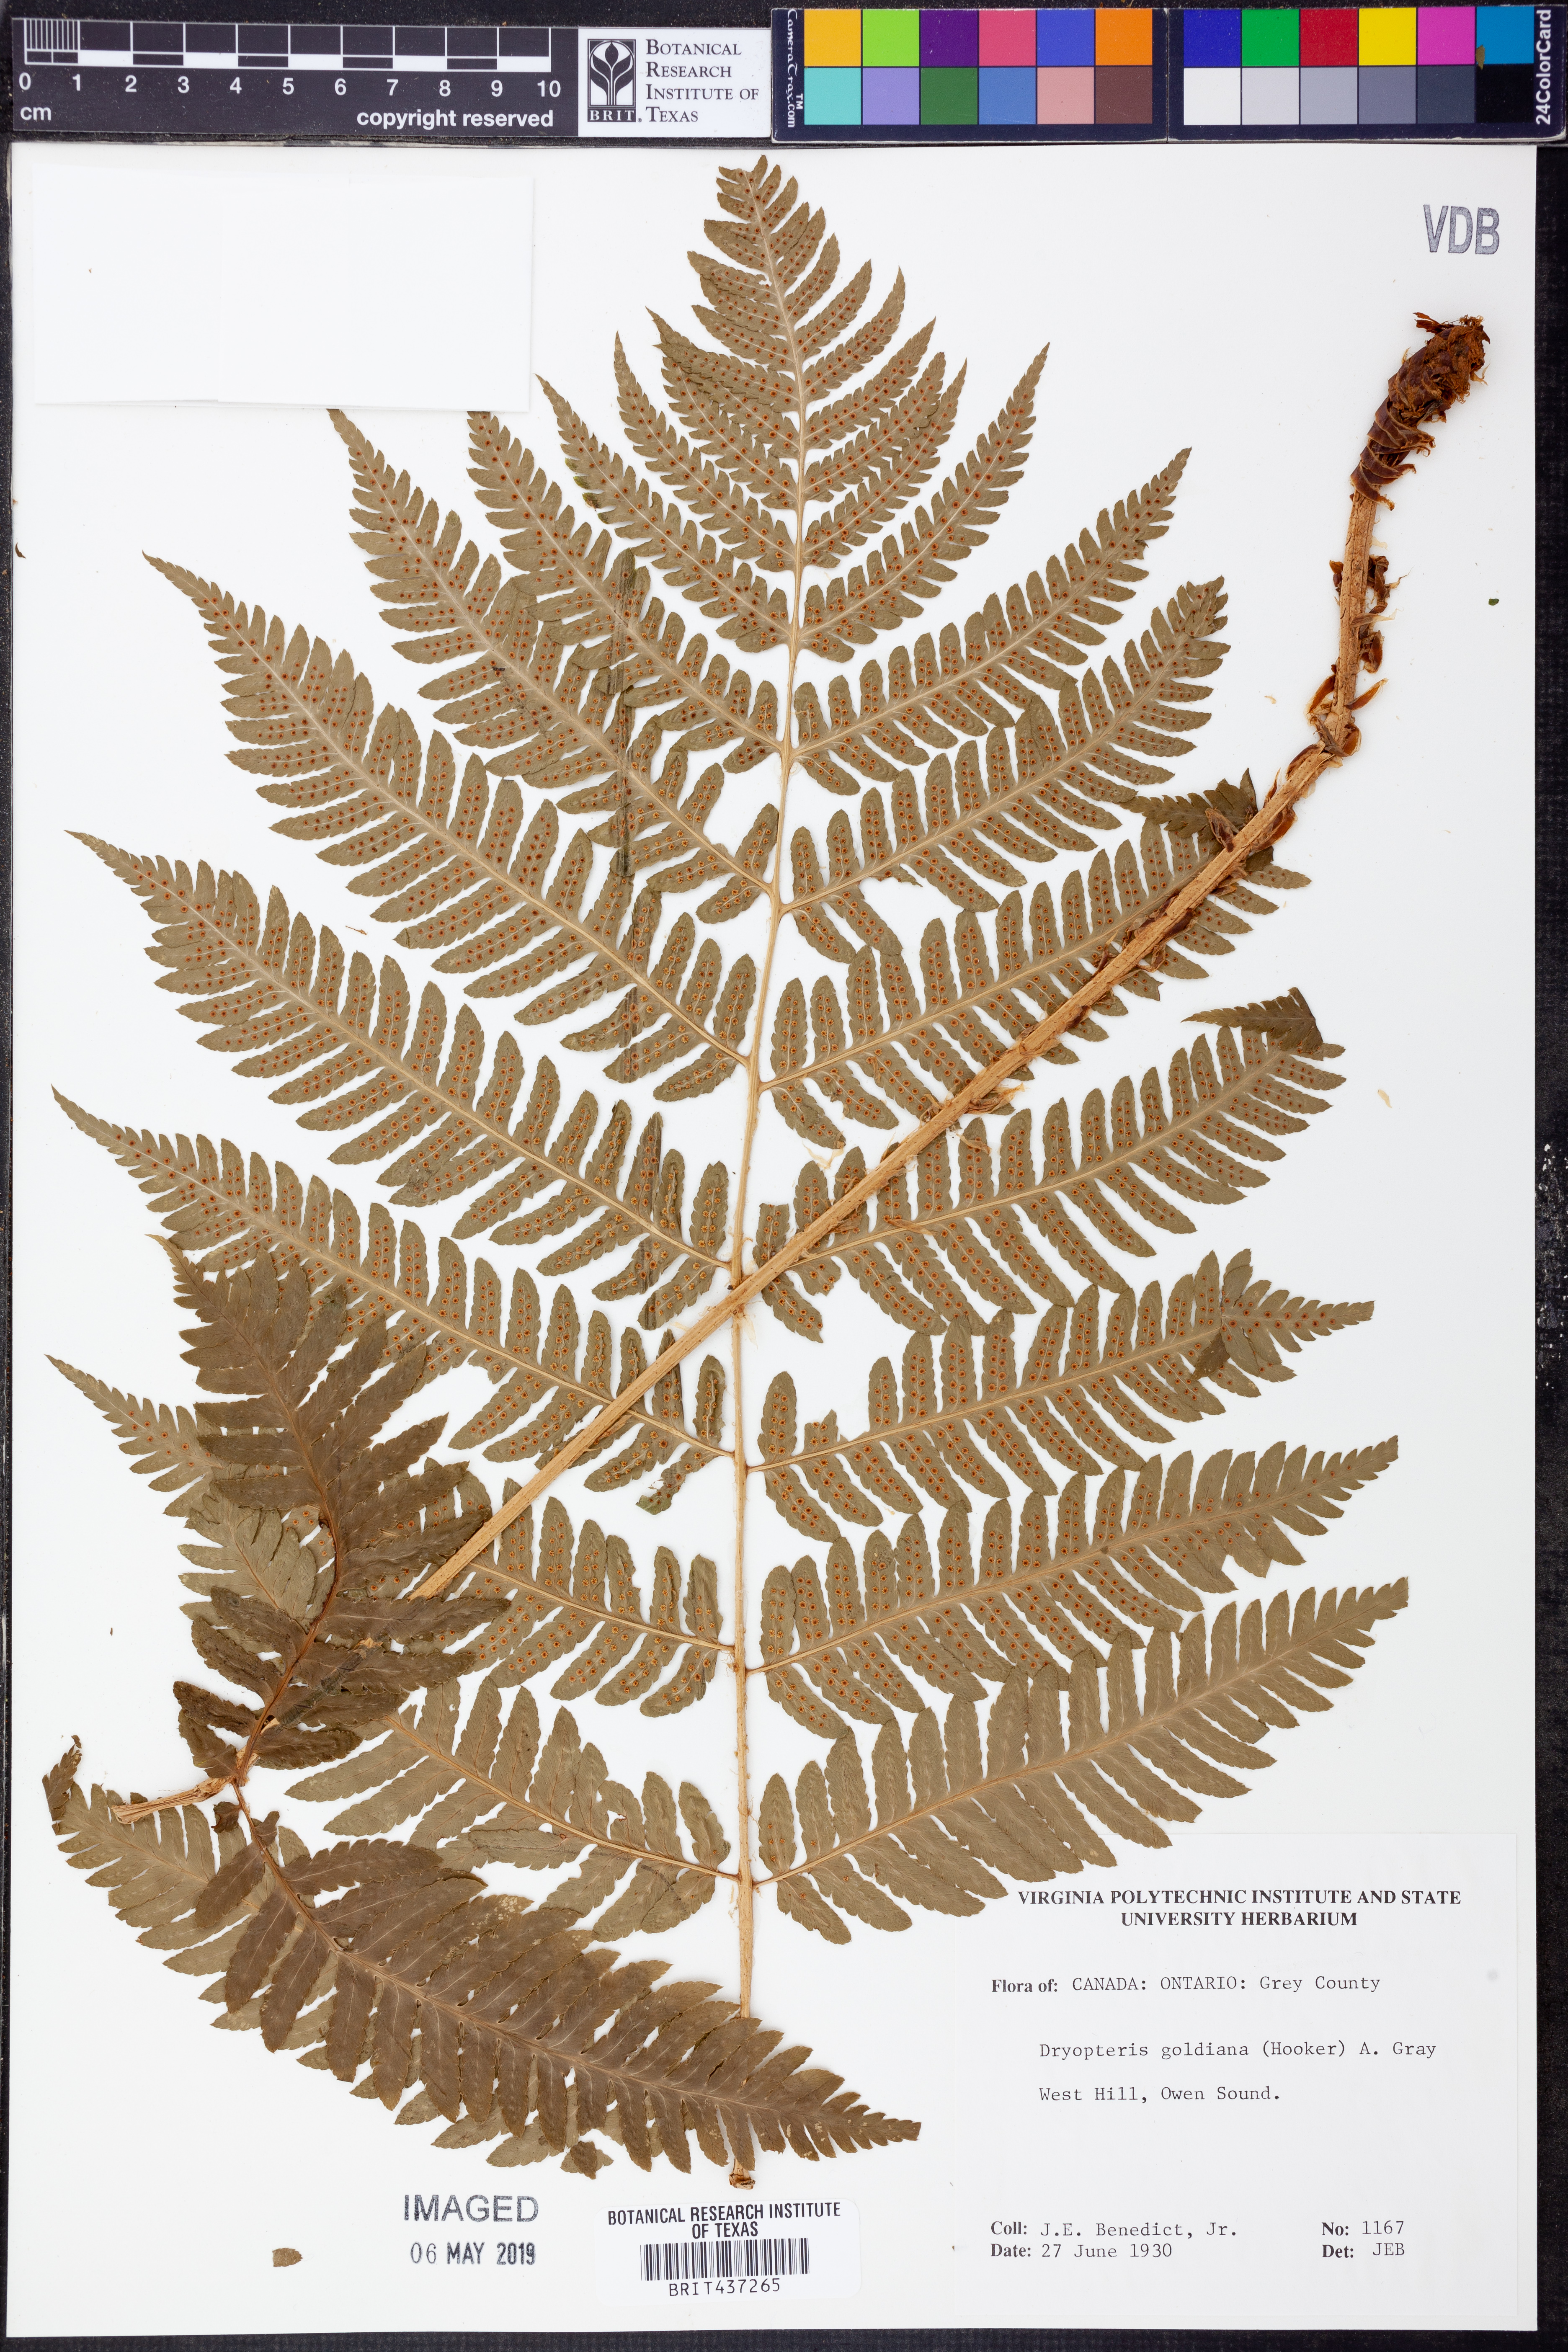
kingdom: Plantae
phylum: Tracheophyta
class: Polypodiopsida
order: Polypodiales
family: Dryopteridaceae
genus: Dryopteris
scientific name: Dryopteris goeldiana
